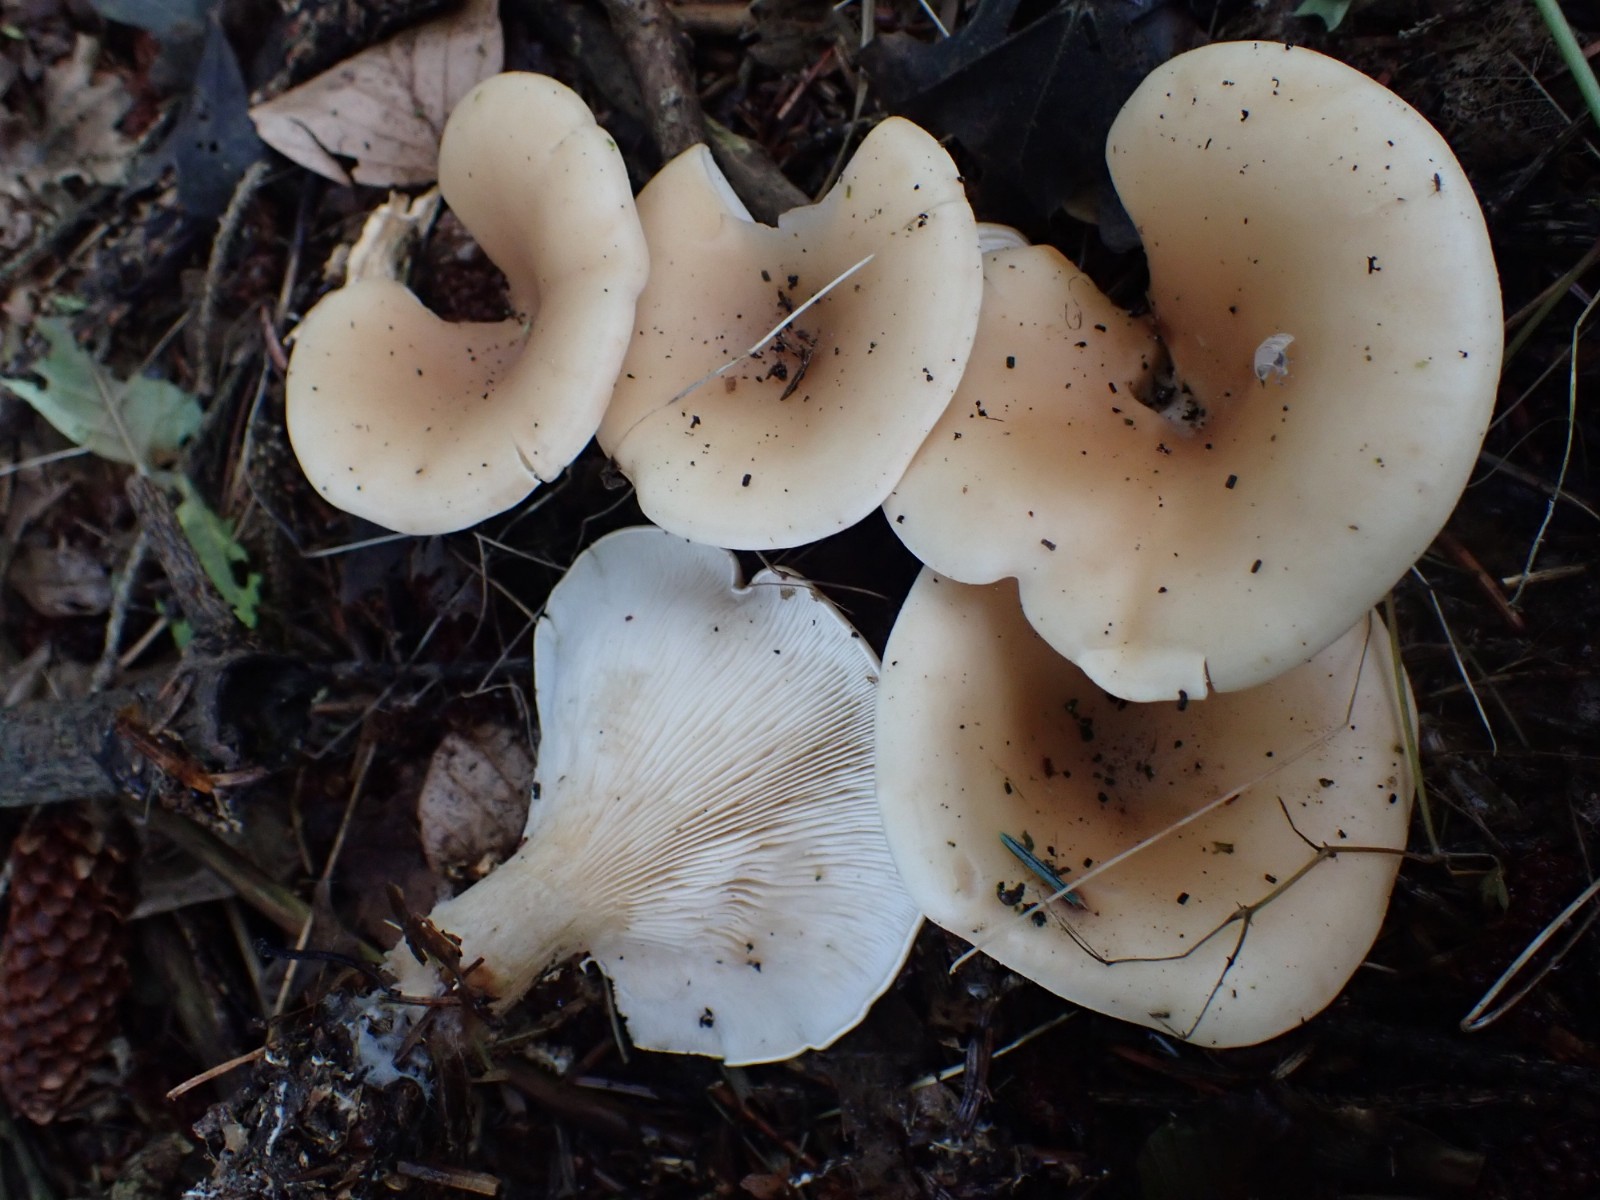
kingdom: Fungi
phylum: Basidiomycota
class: Agaricomycetes
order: Agaricales
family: Tricholomataceae
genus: Paralepista
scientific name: Paralepista flaccida
